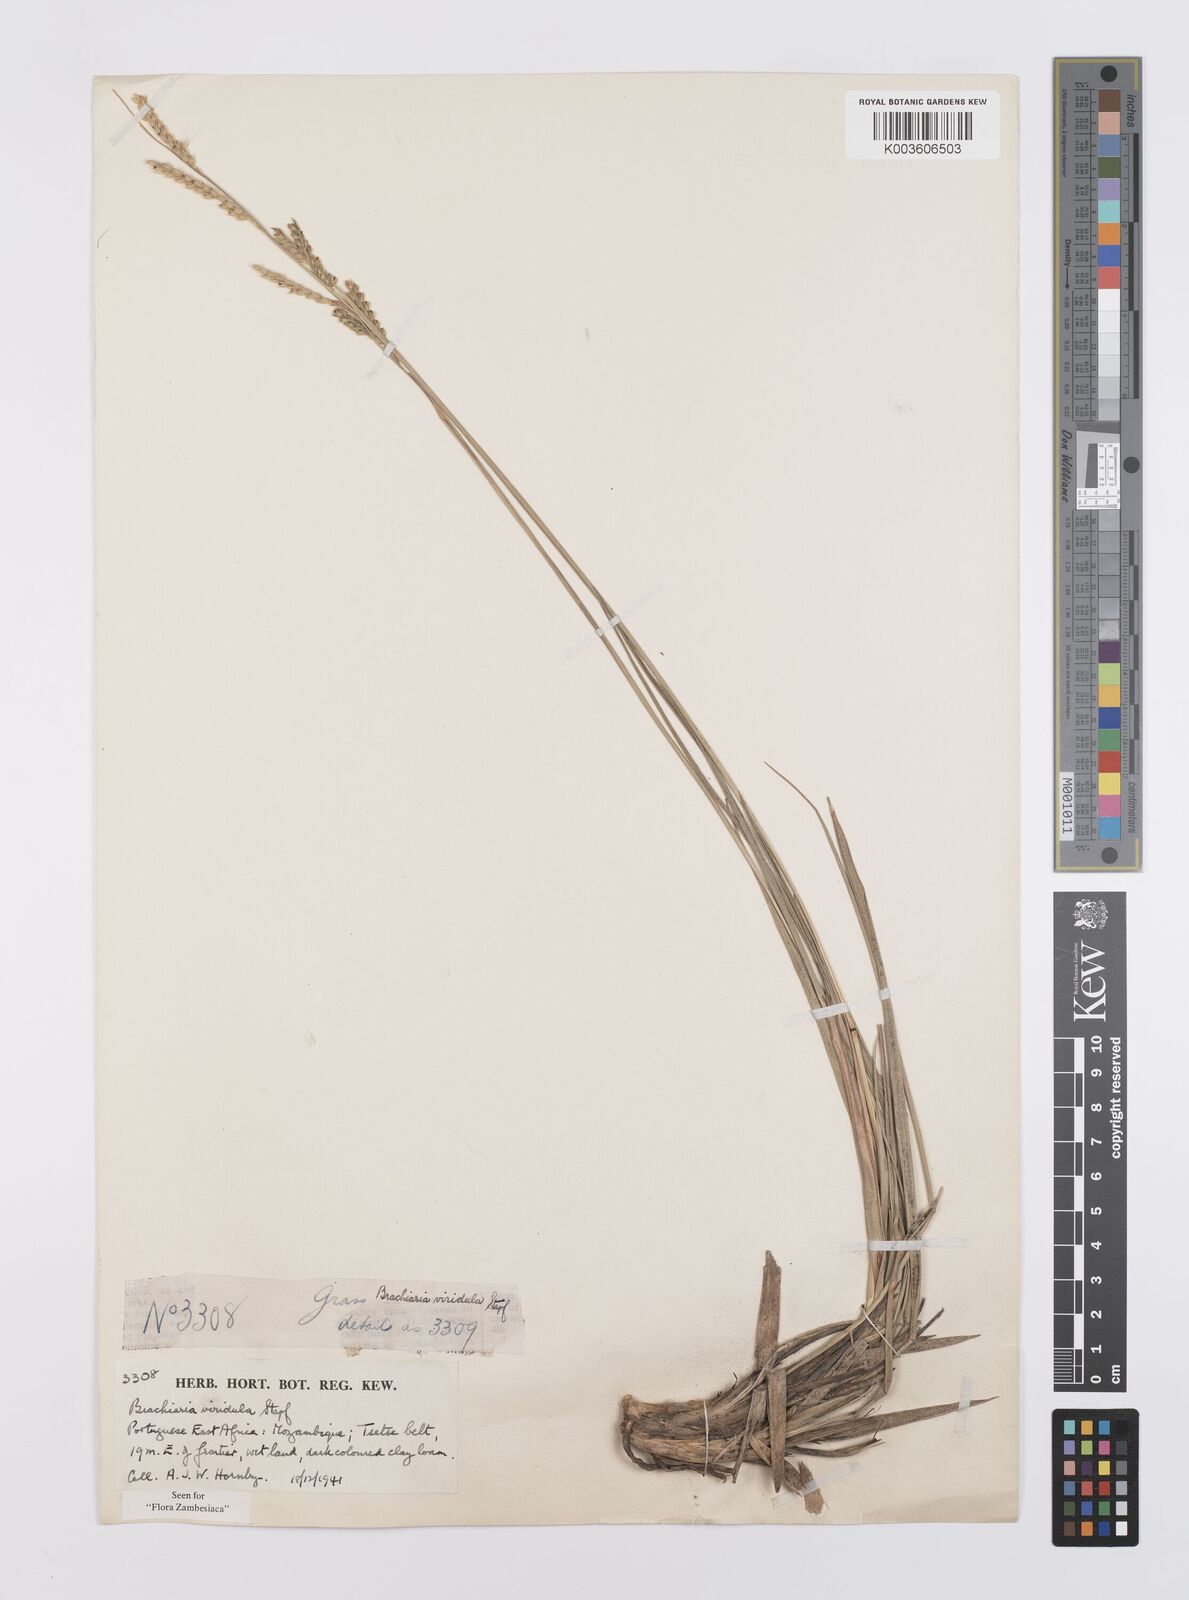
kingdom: Plantae
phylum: Tracheophyta
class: Liliopsida
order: Poales
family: Poaceae
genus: Urochloa
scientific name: Urochloa bovonei
